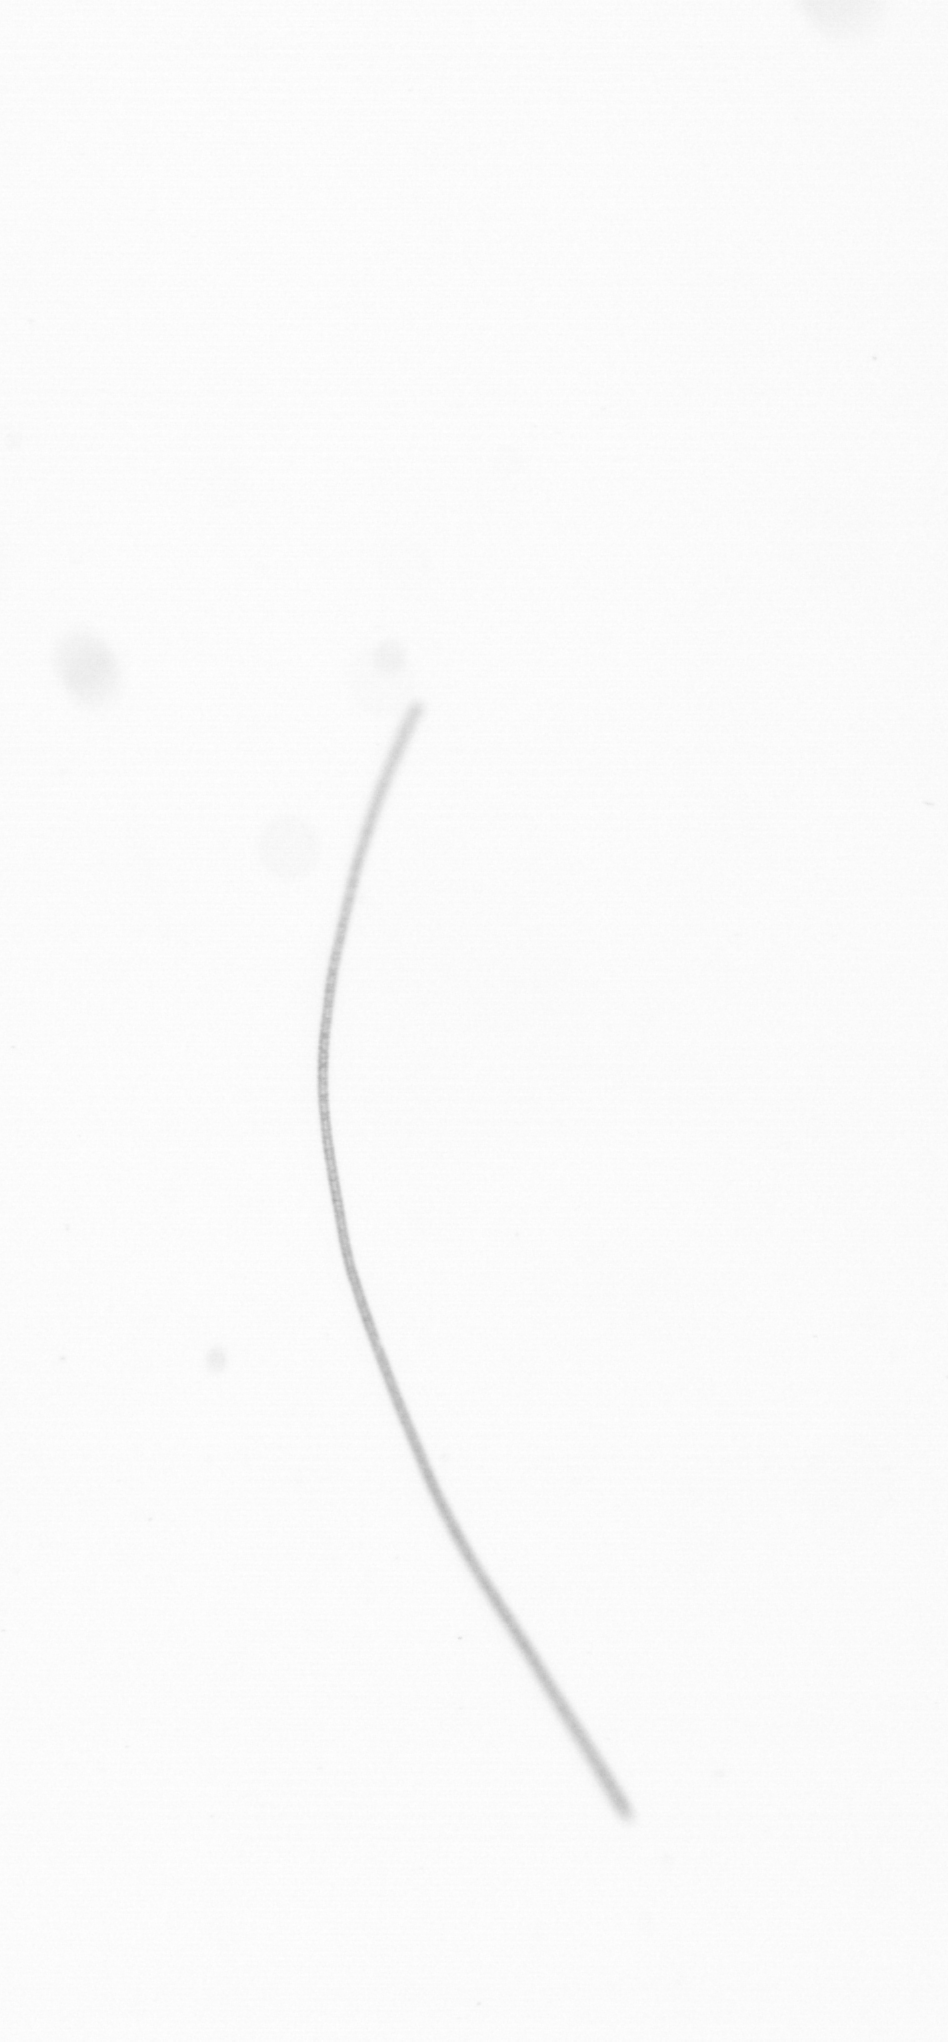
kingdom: Chromista
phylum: Ochrophyta
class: Bacillariophyceae
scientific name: Bacillariophyceae
